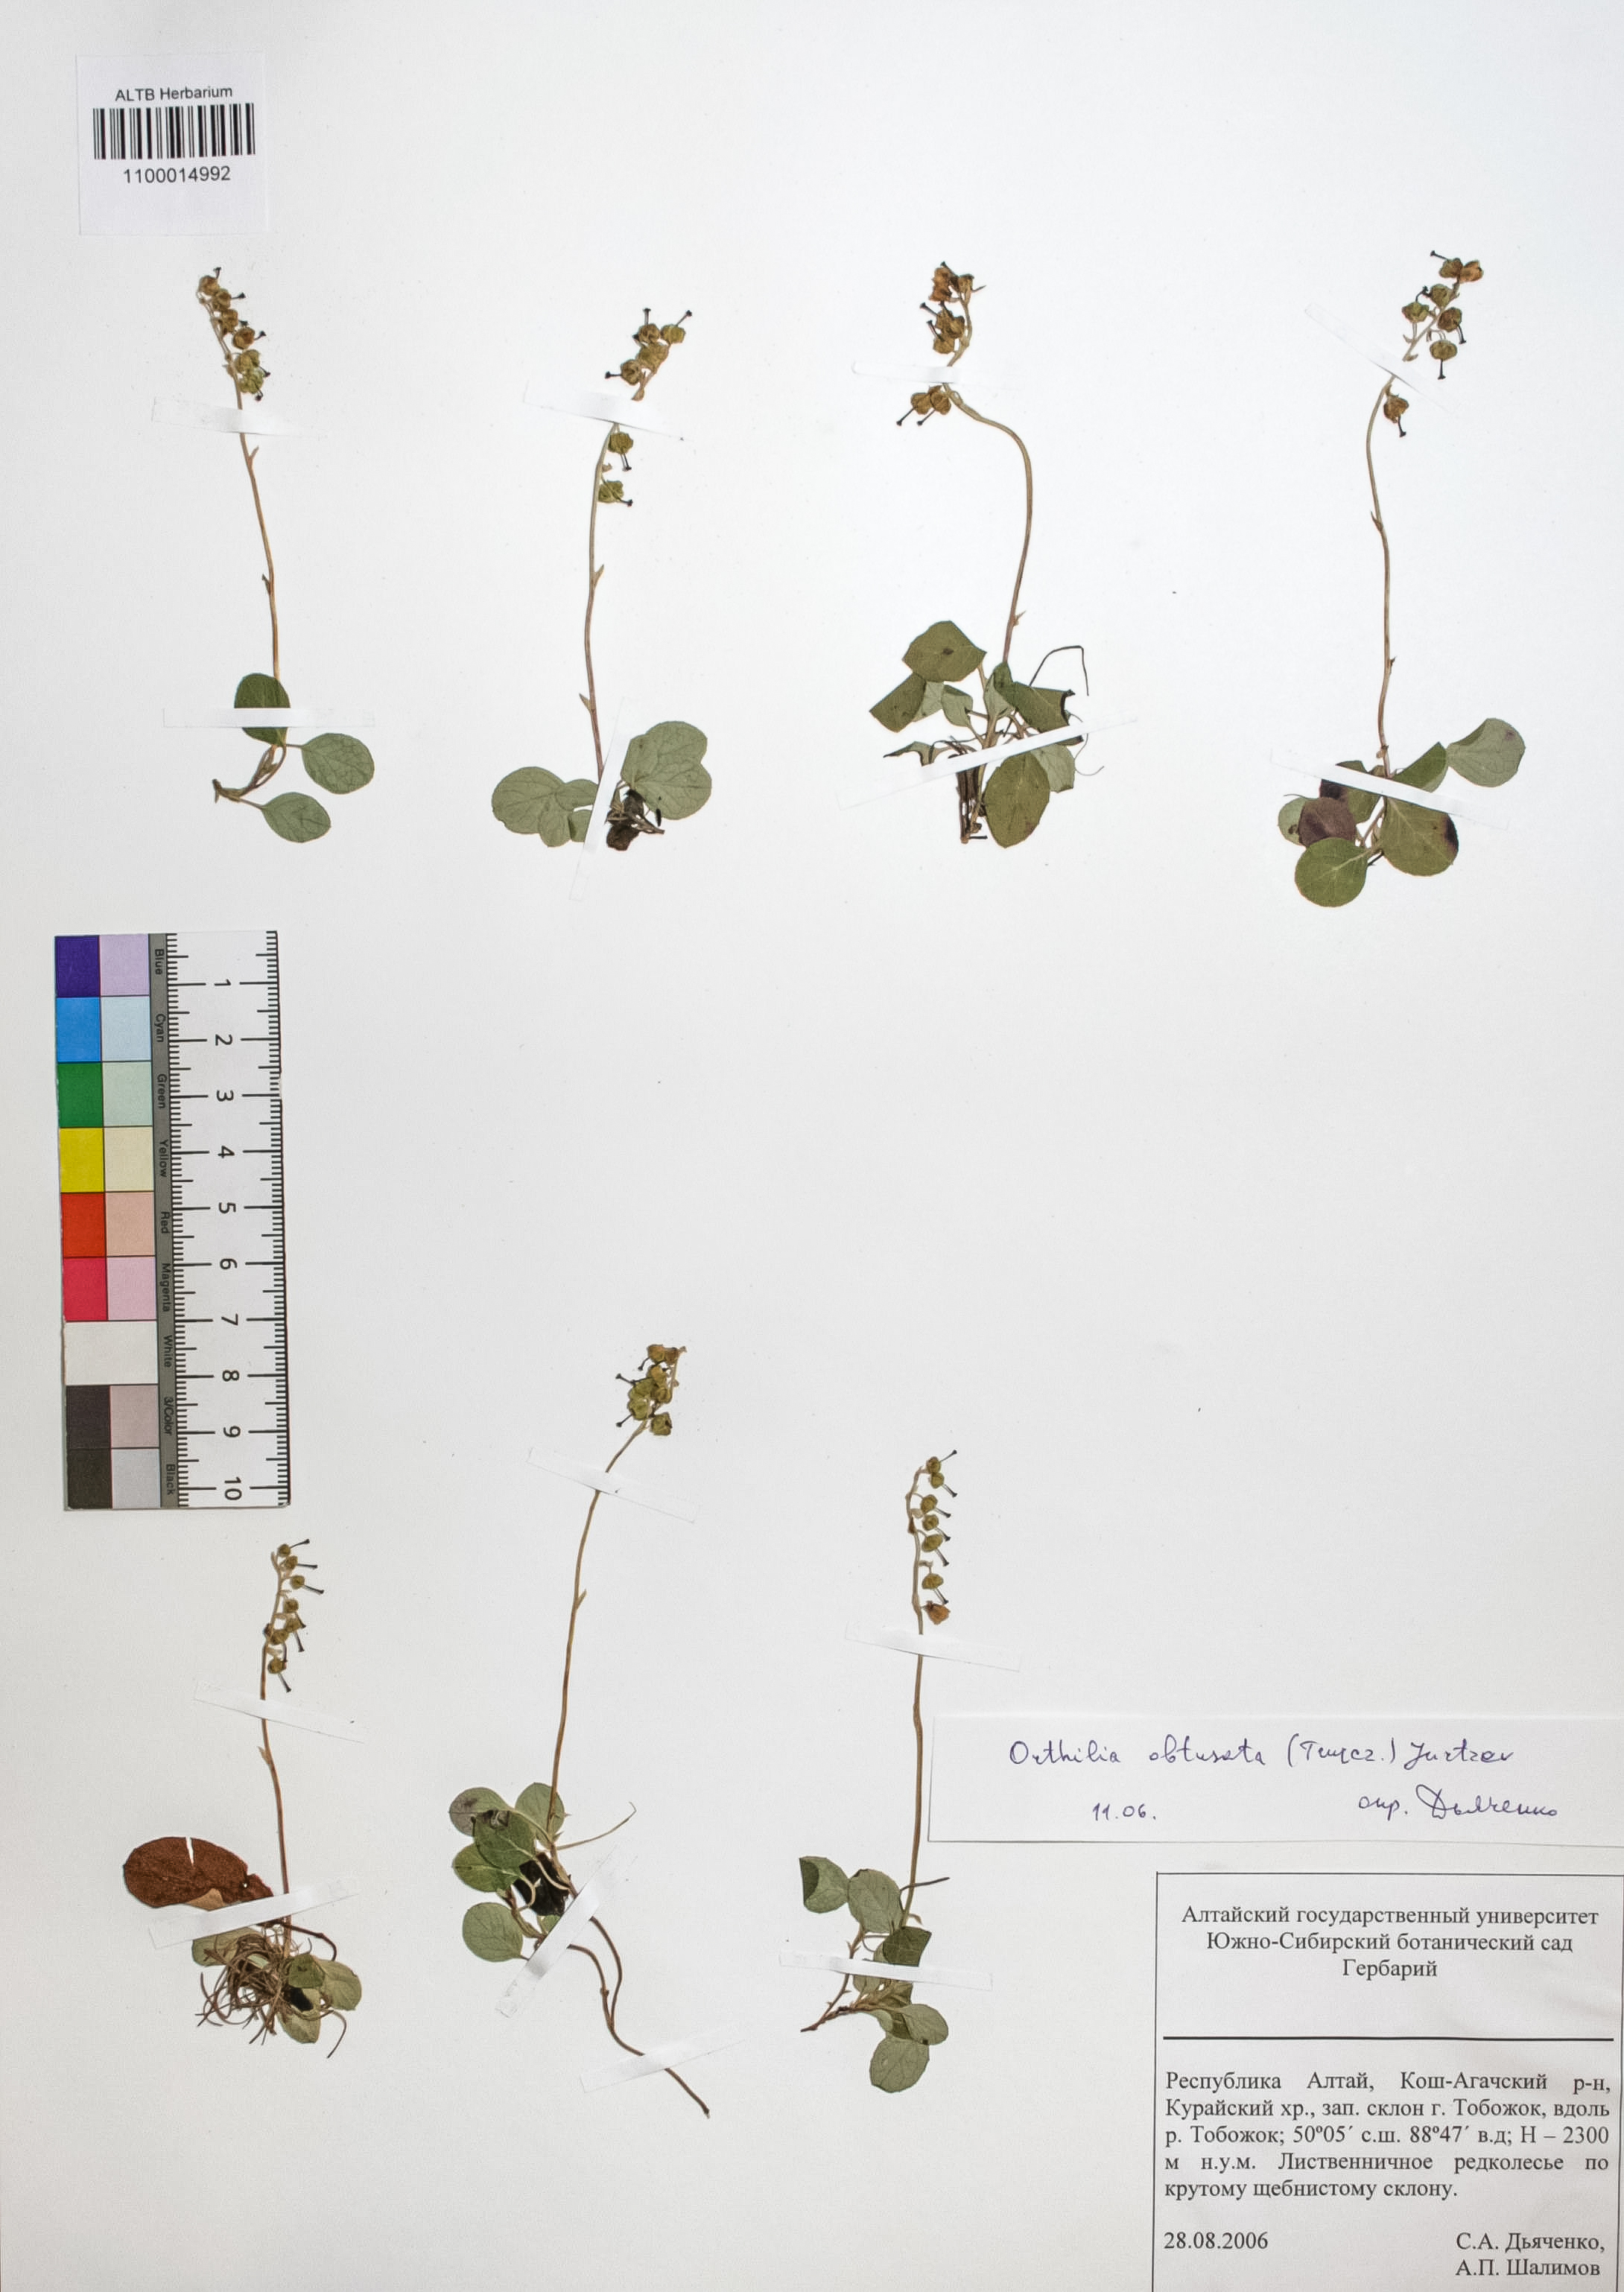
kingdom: Plantae
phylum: Tracheophyta
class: Magnoliopsida
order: Ericales
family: Ericaceae
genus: Orthilia
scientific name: Orthilia secunda
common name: One-sided orthilia
